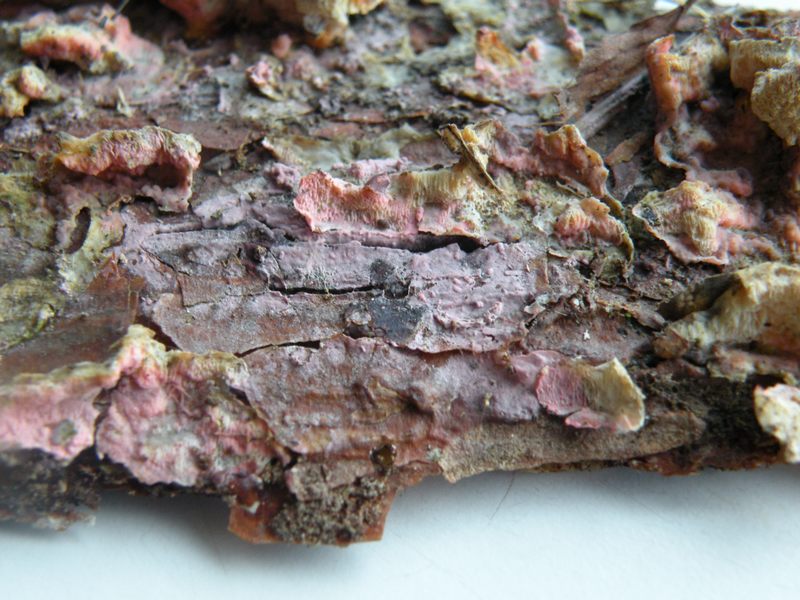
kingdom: Fungi
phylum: Basidiomycota
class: Agaricomycetes
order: Cantharellales
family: Tulasnellaceae
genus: Tulasnella
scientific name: Tulasnella violea
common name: violet ballonhinde
